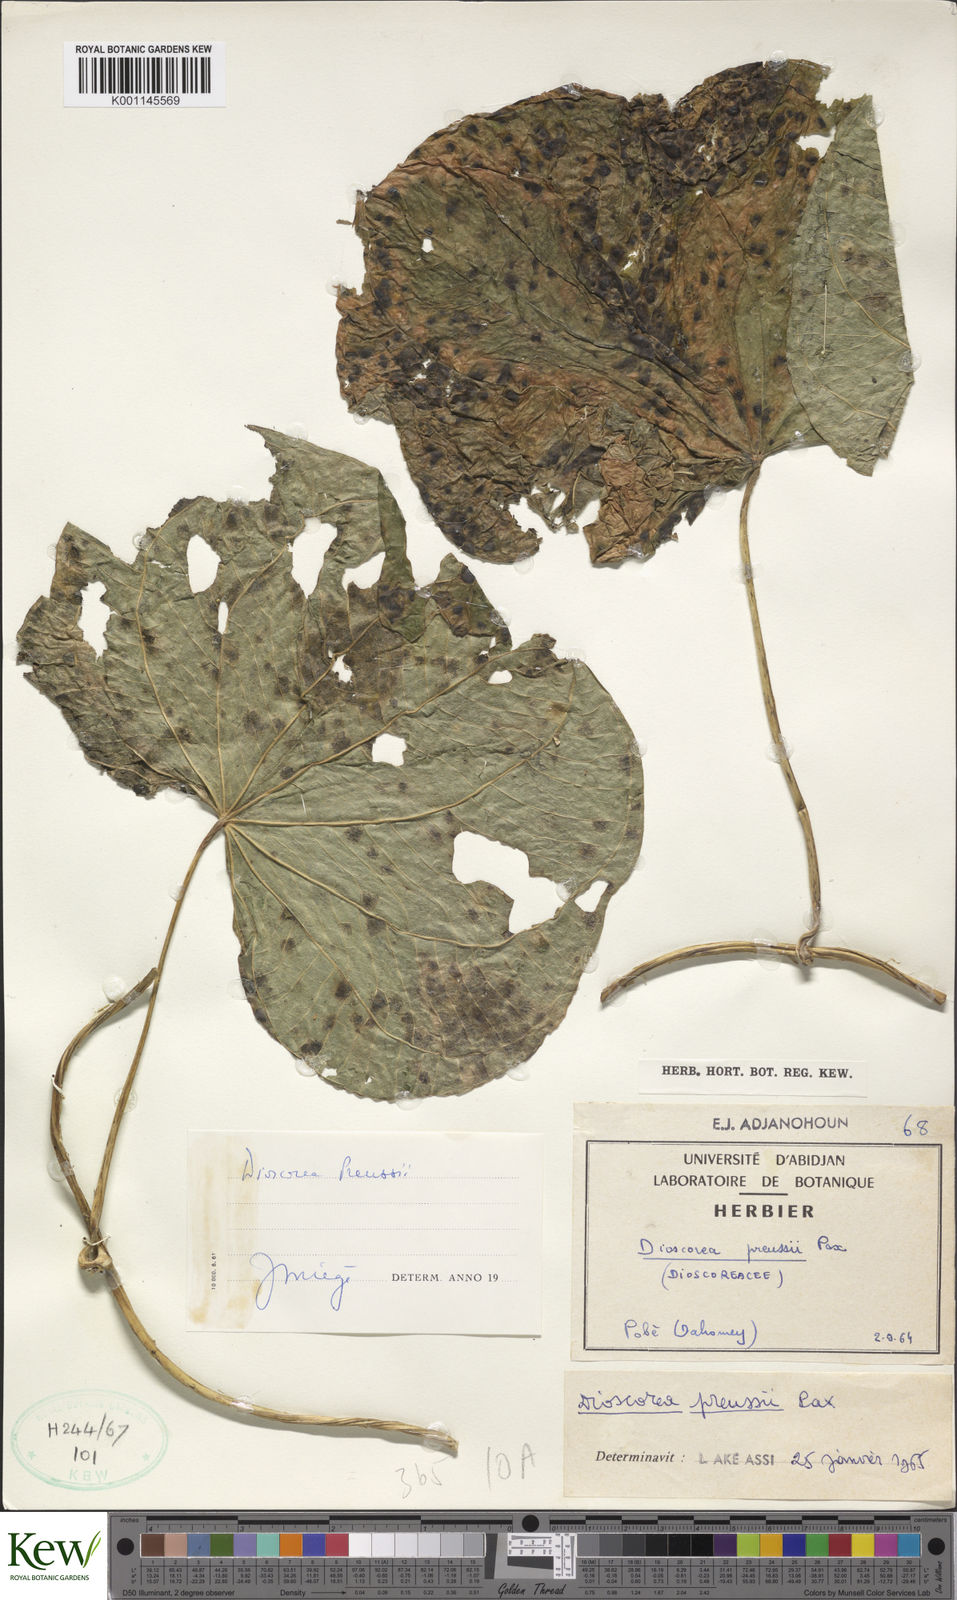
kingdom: Plantae
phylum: Tracheophyta
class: Liliopsida
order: Dioscoreales
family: Dioscoreaceae
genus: Dioscorea
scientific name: Dioscorea preussii
